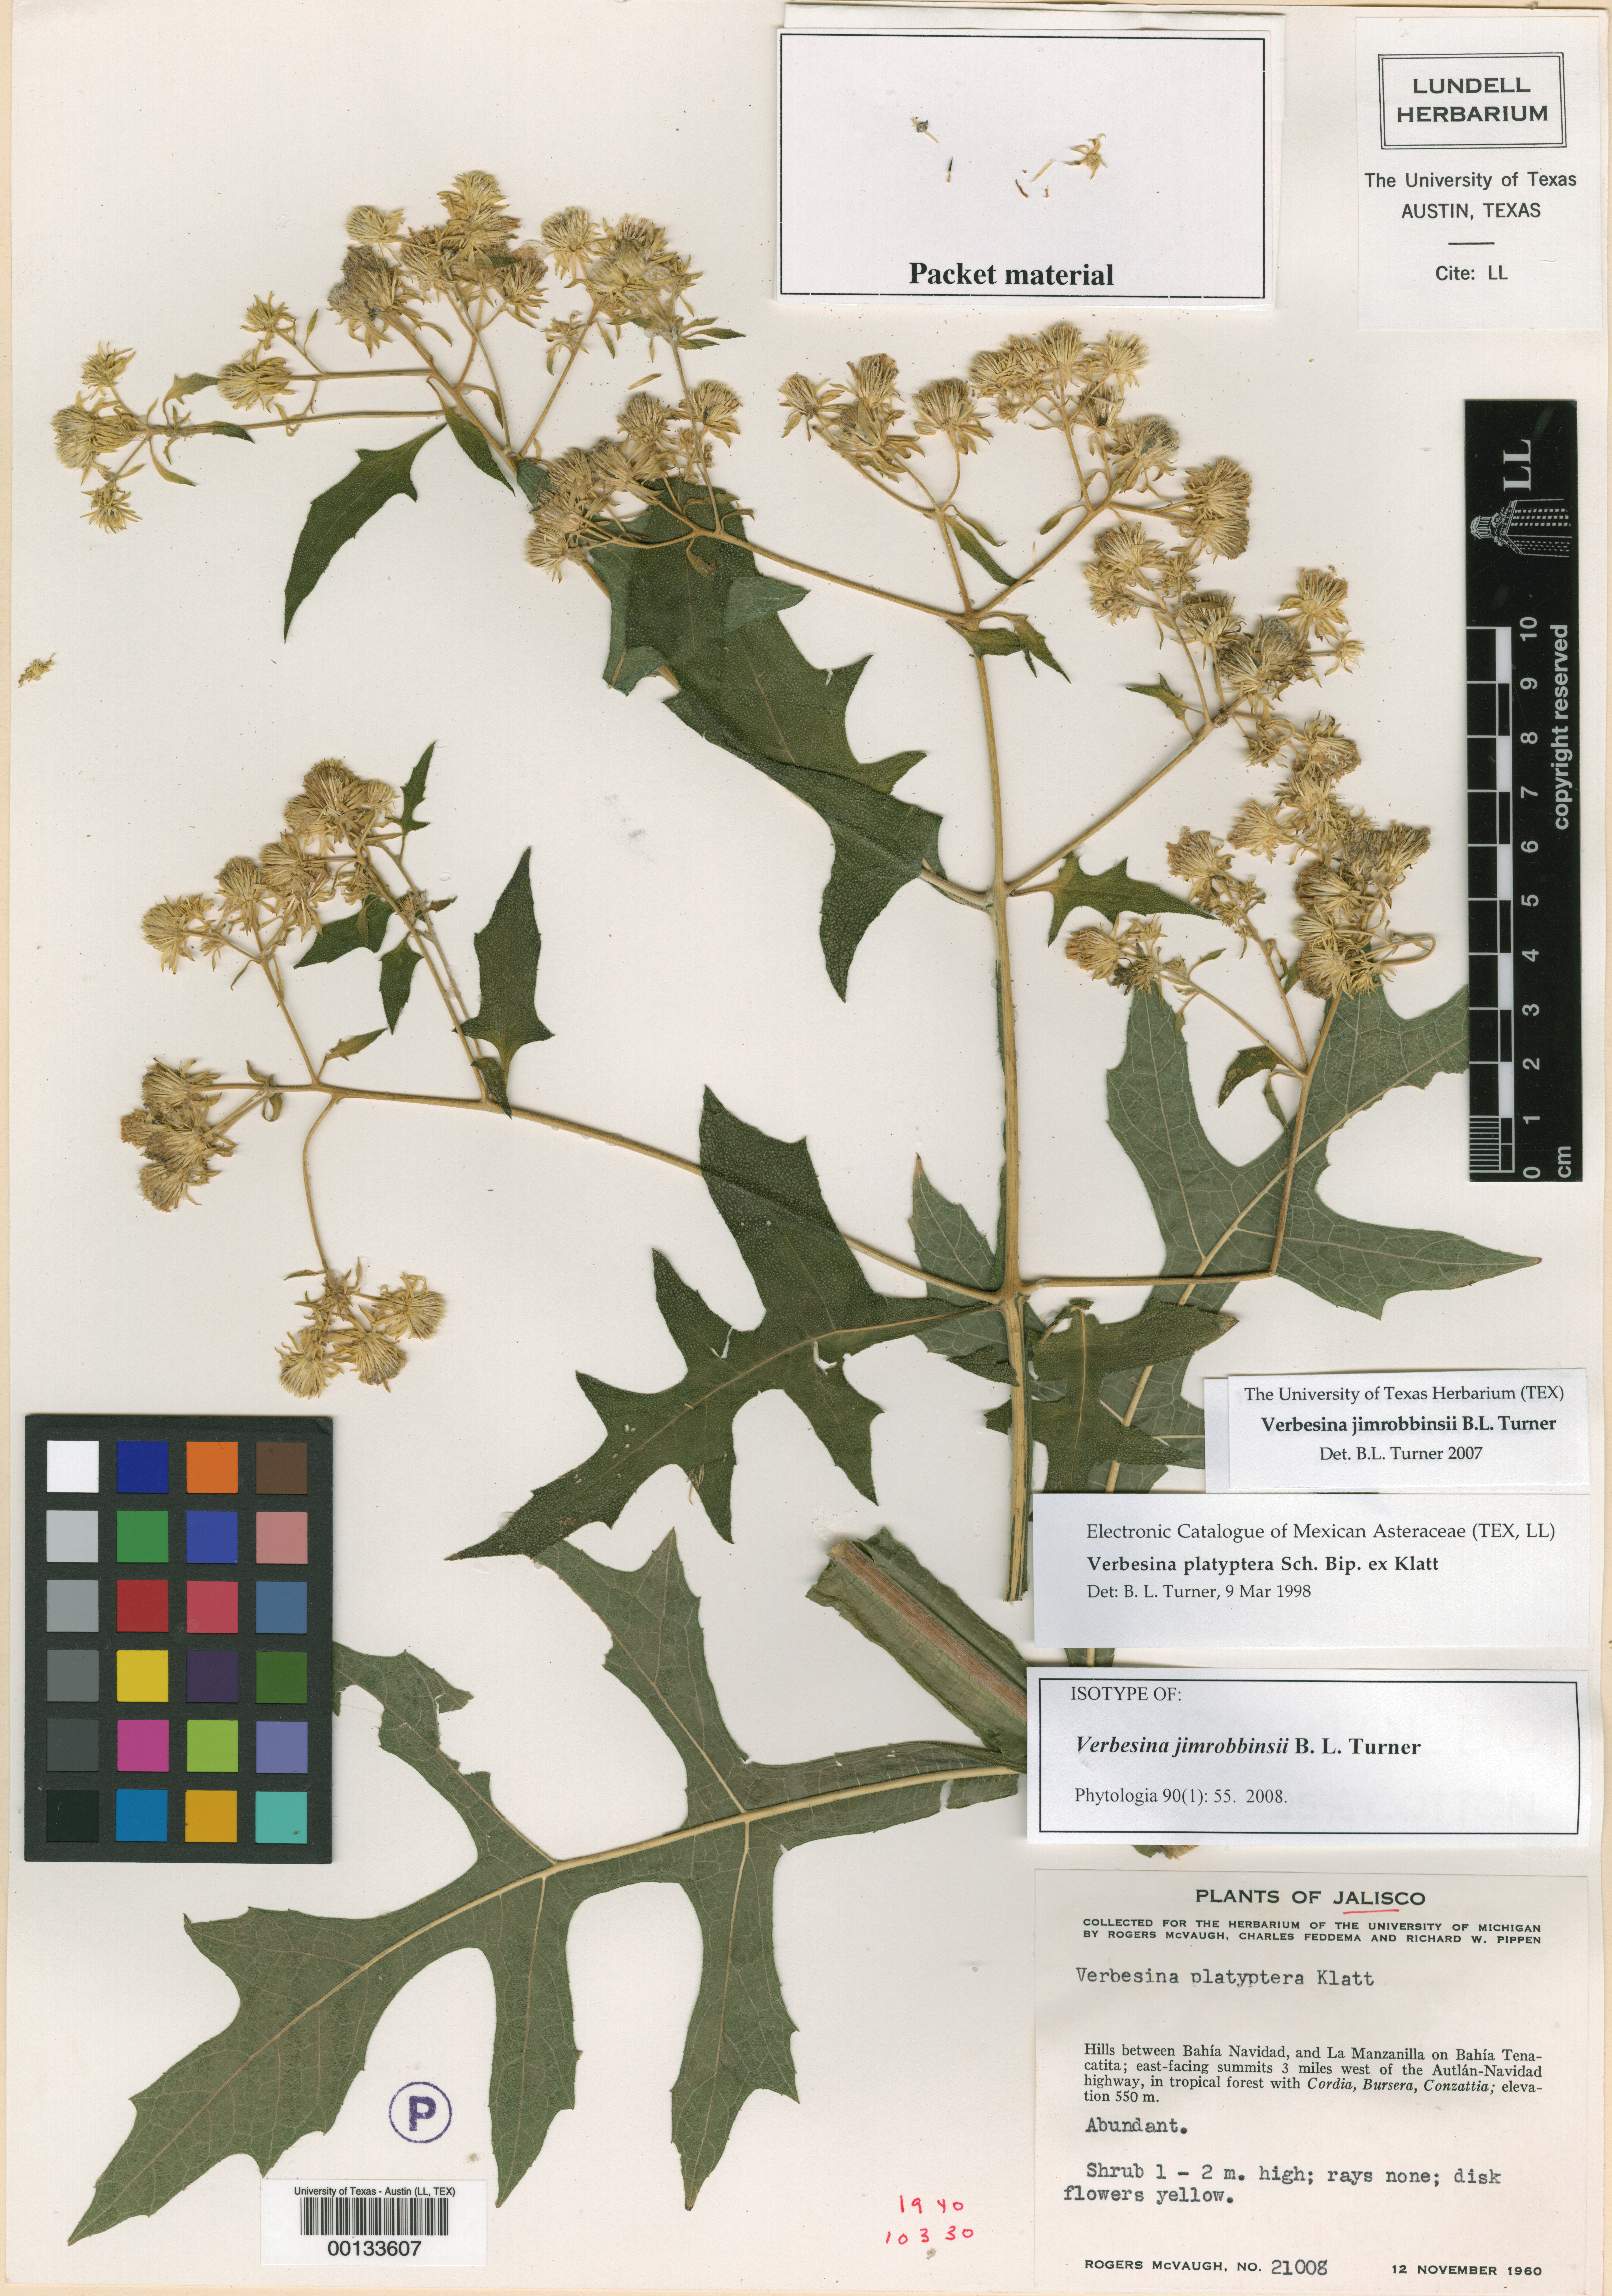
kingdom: Plantae
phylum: Tracheophyta
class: Magnoliopsida
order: Asterales
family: Asteraceae
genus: Verbesina
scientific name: Verbesina jimrobbinsii
